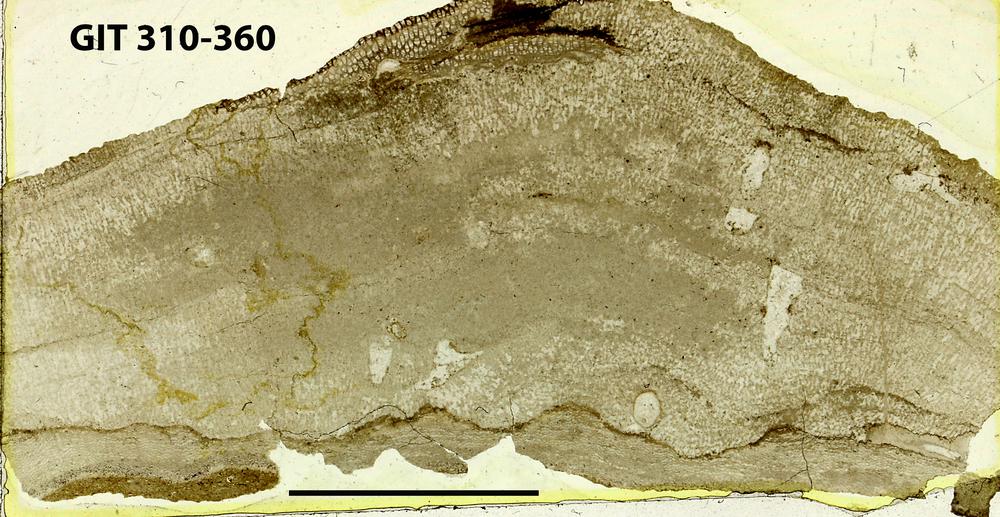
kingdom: Animalia
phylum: Porifera
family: Ecclimadictyidae
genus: Ecclimadictyon
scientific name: Ecclimadictyon
